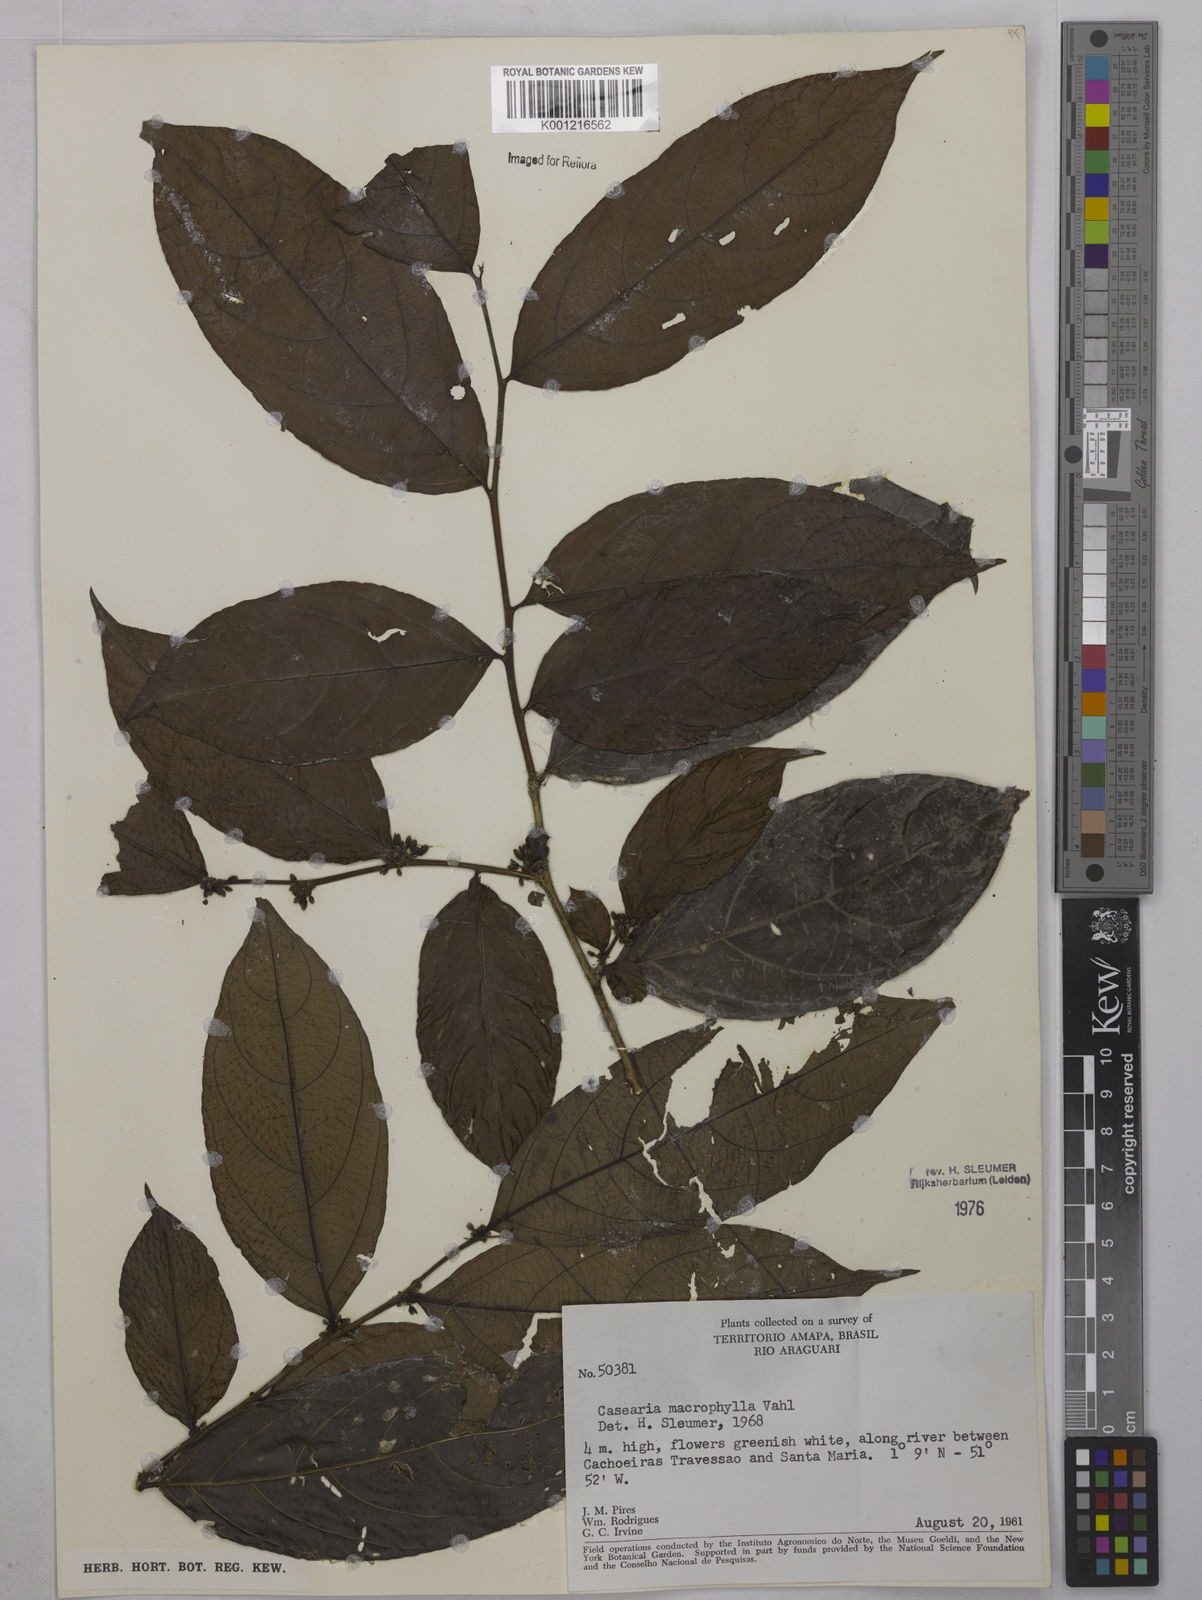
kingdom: Plantae
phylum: Tracheophyta
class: Magnoliopsida
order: Malpighiales
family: Salicaceae
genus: Casearia
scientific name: Casearia pitumba
